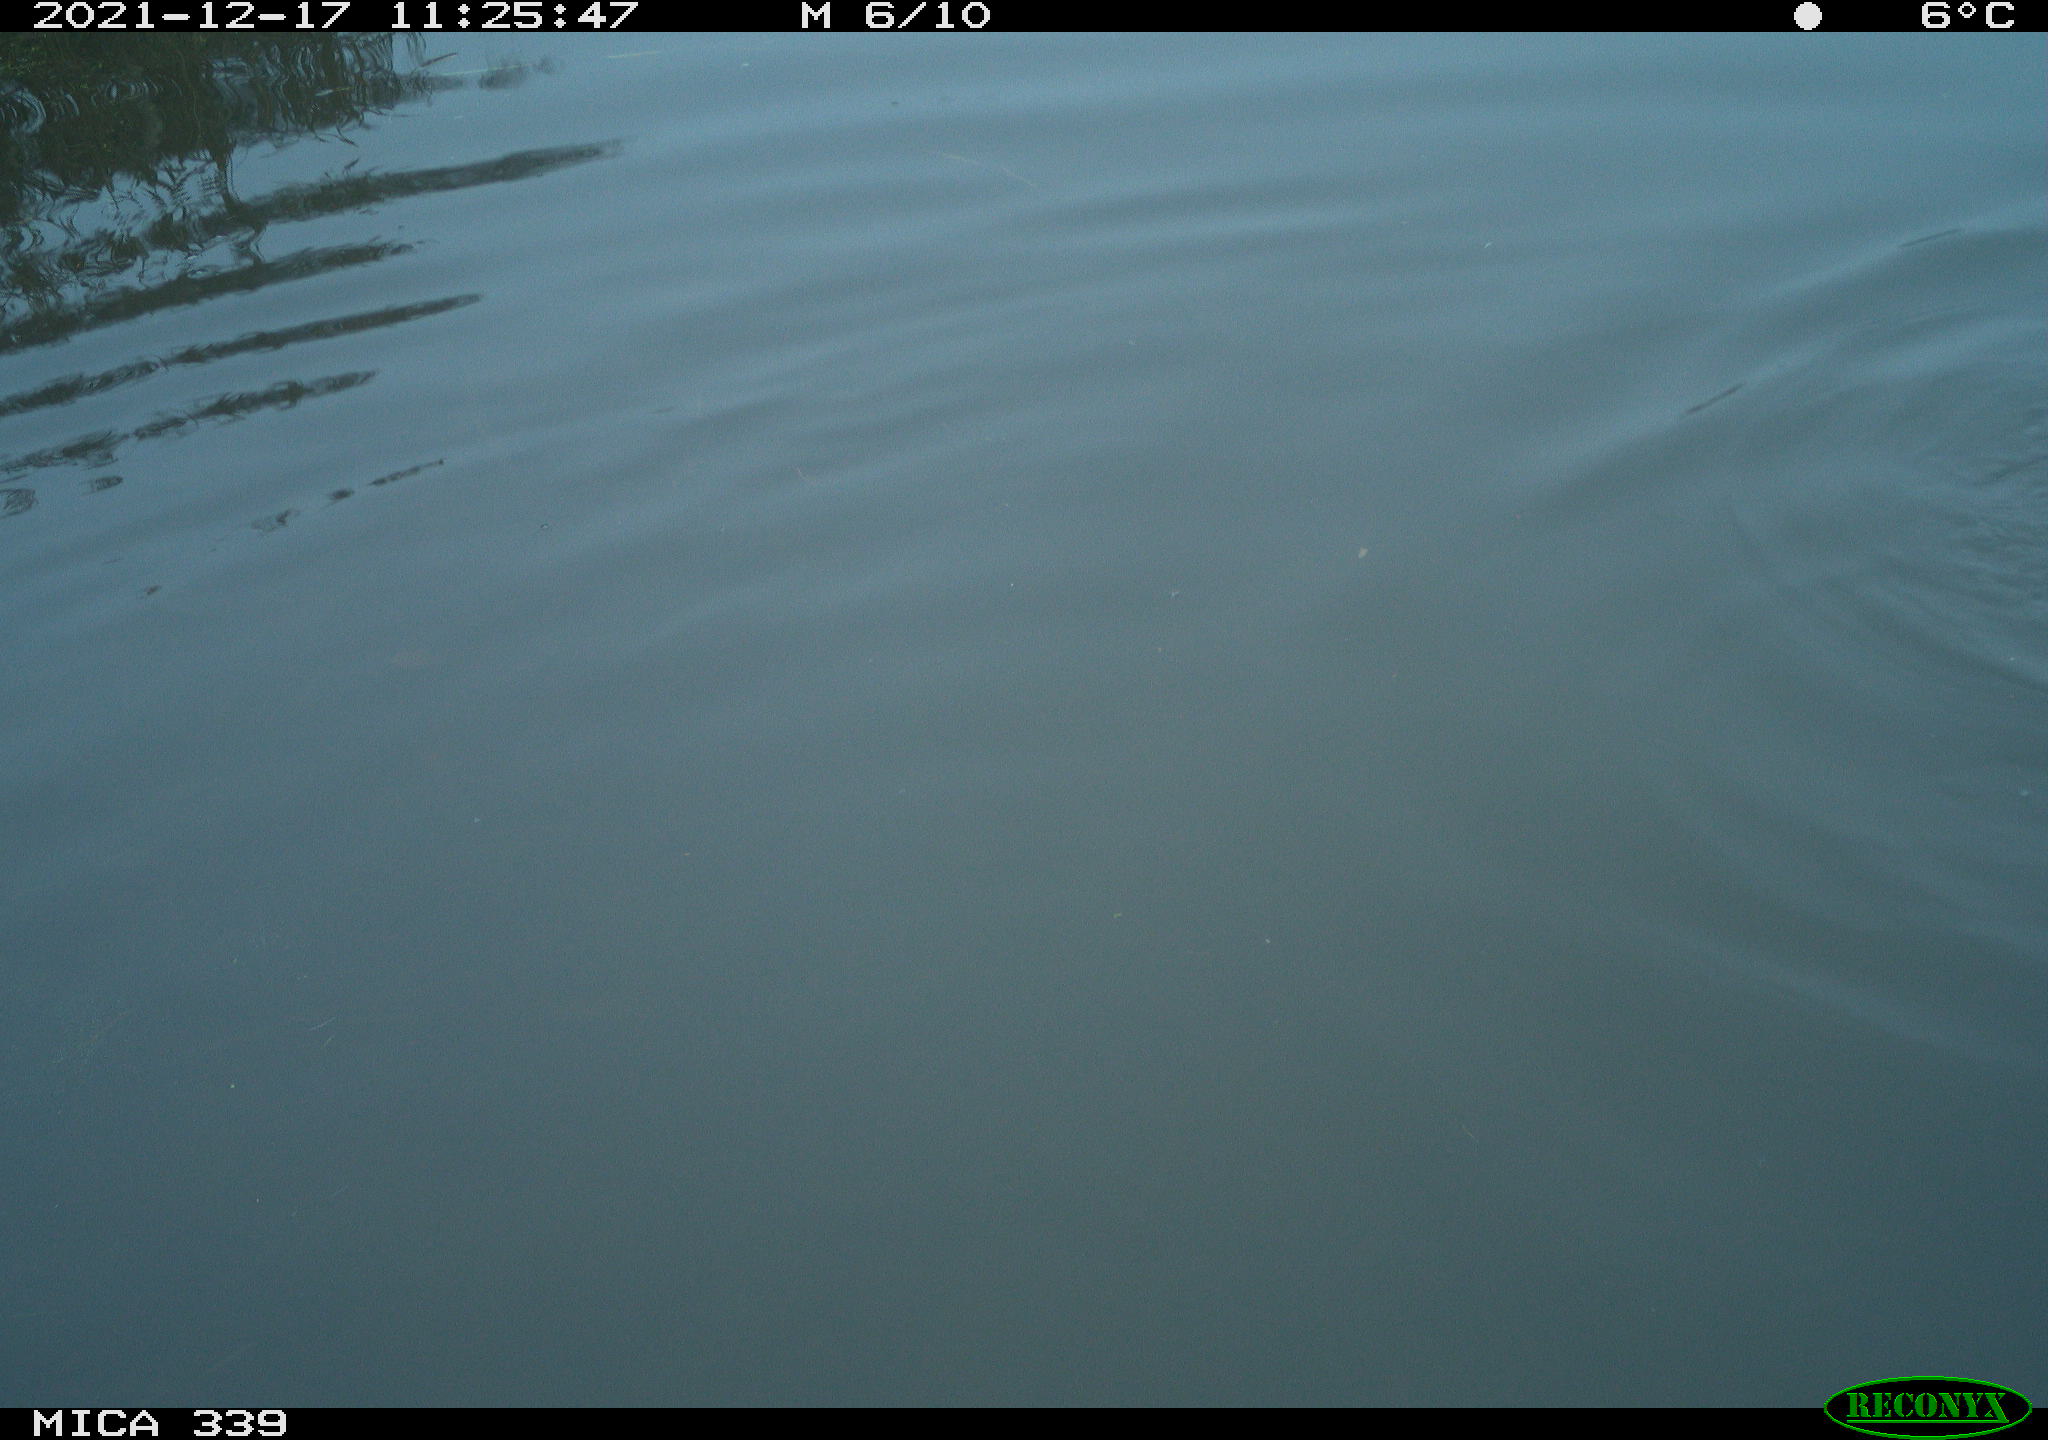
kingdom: Animalia
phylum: Chordata
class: Aves
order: Suliformes
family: Phalacrocoracidae
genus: Phalacrocorax
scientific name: Phalacrocorax carbo
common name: Great cormorant
